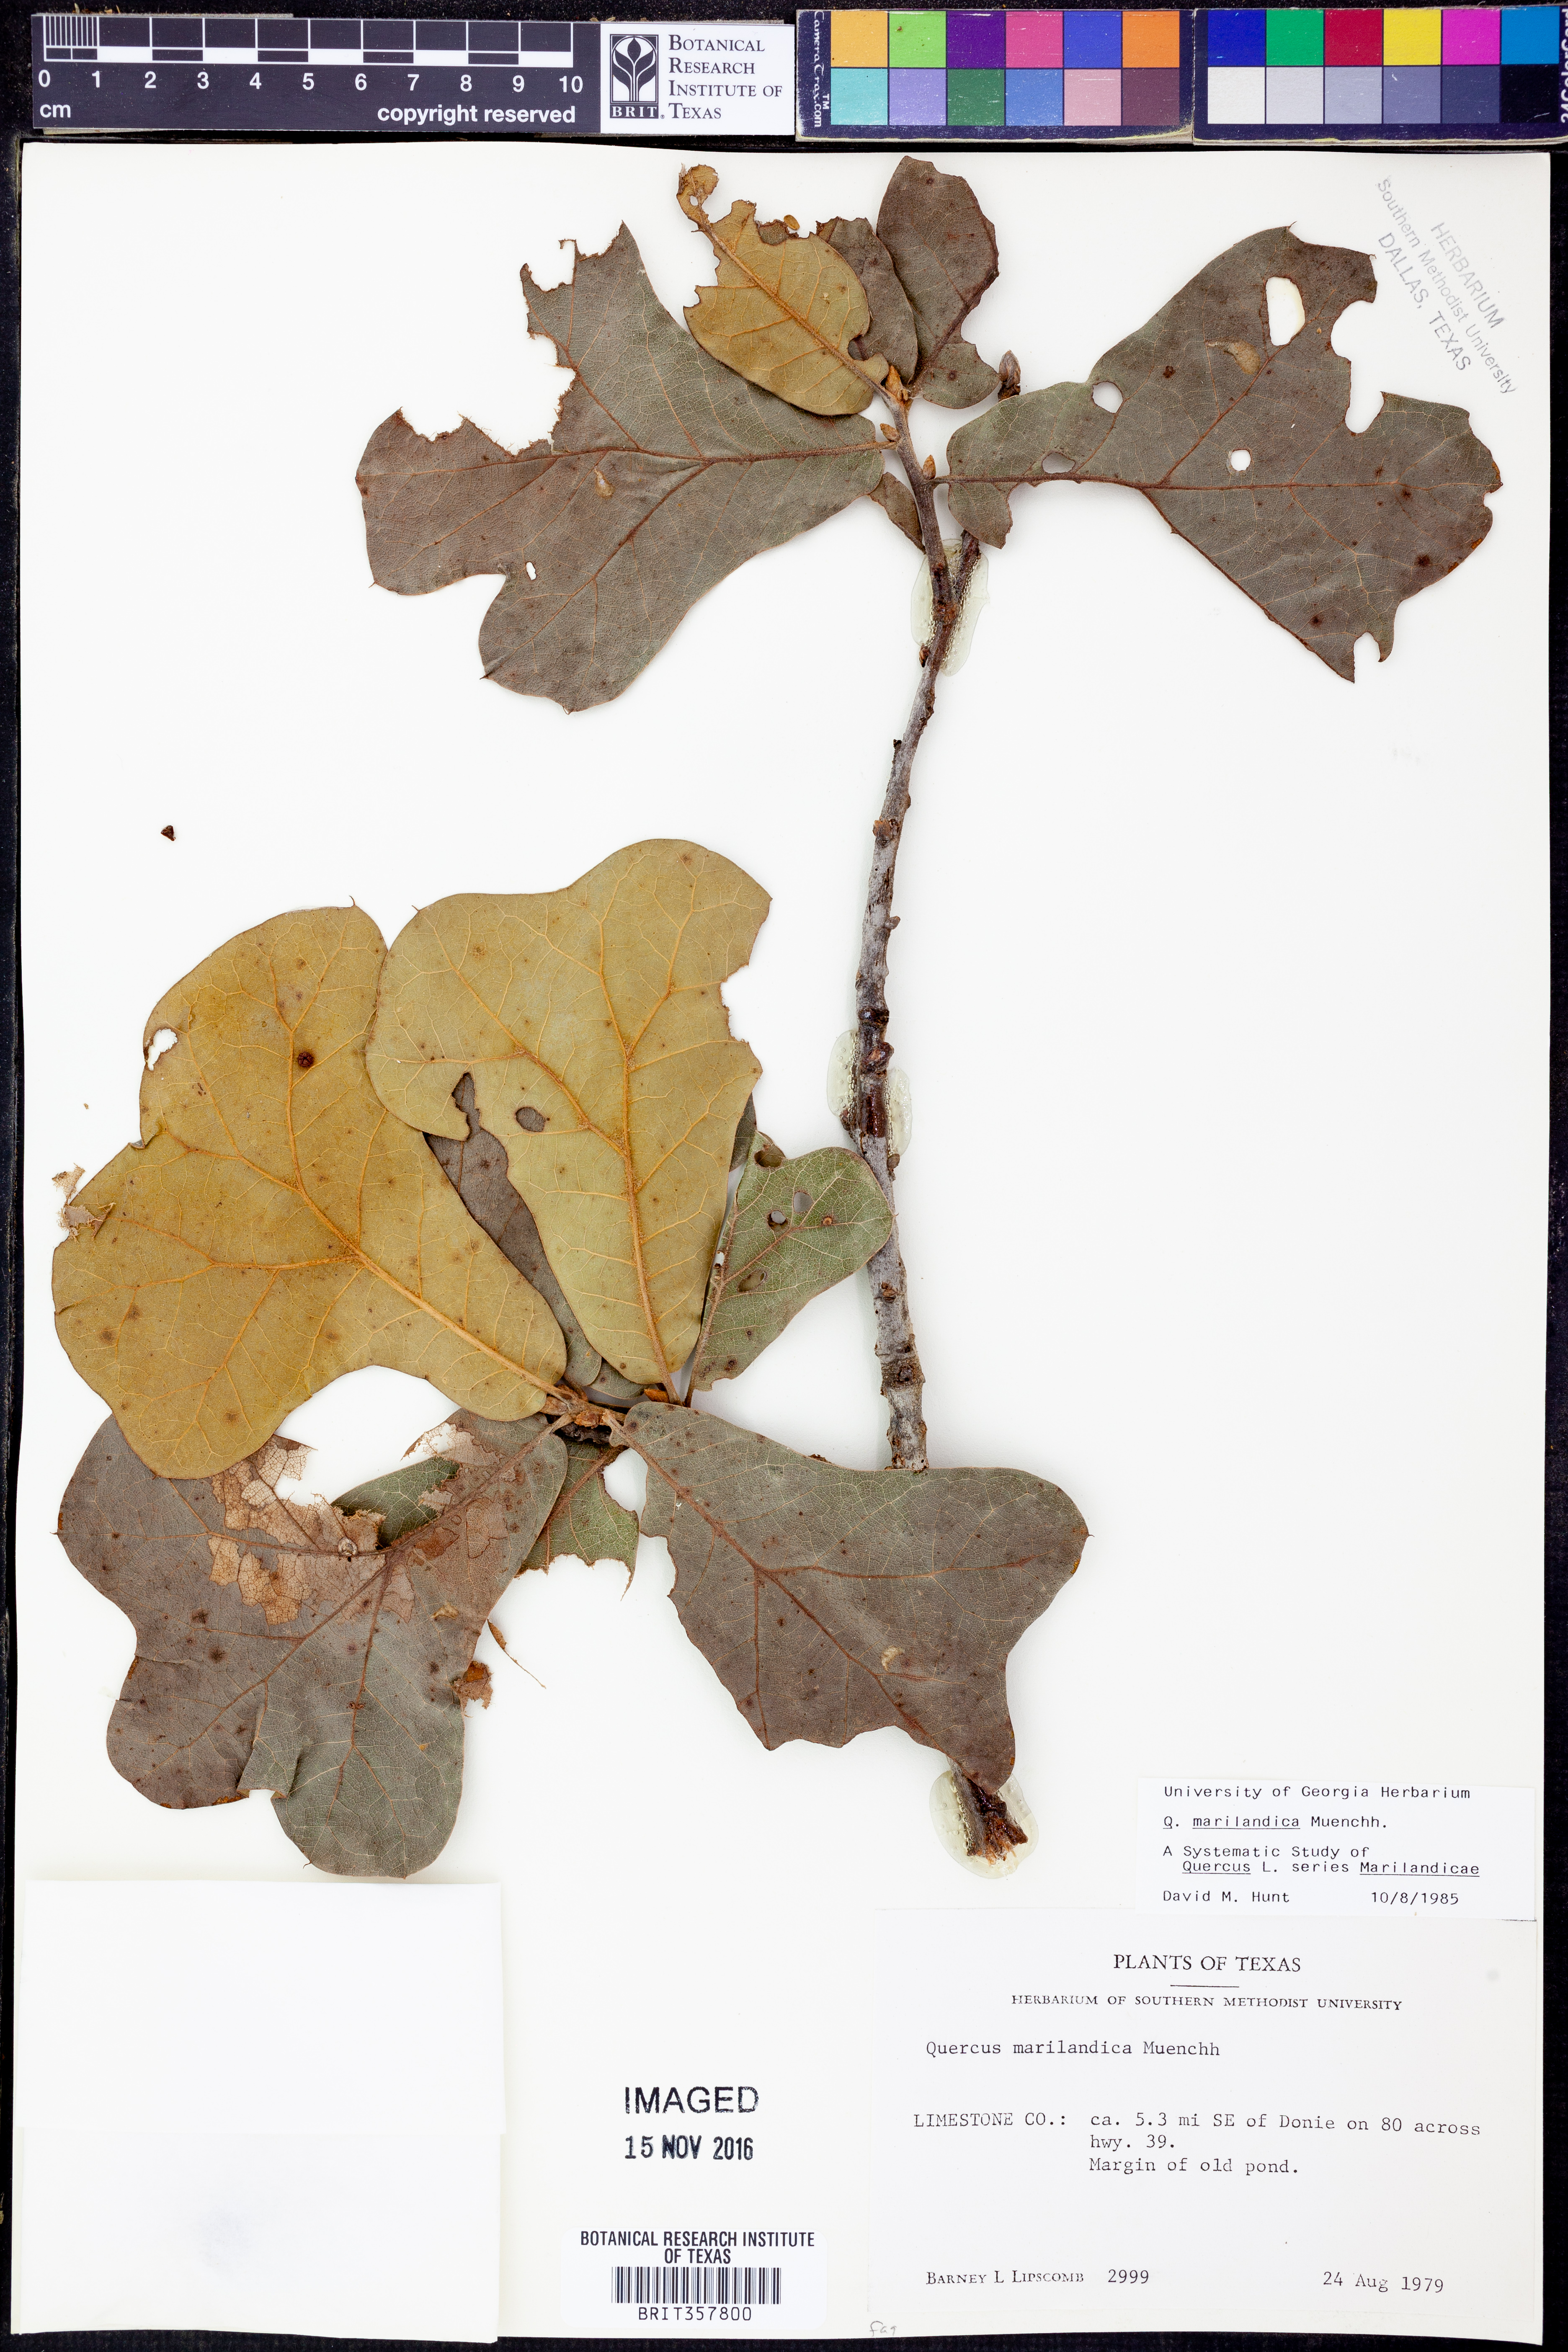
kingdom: Plantae
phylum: Tracheophyta
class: Magnoliopsida
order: Fagales
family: Fagaceae
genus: Quercus
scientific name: Quercus marilandica
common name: Blackjack oak
